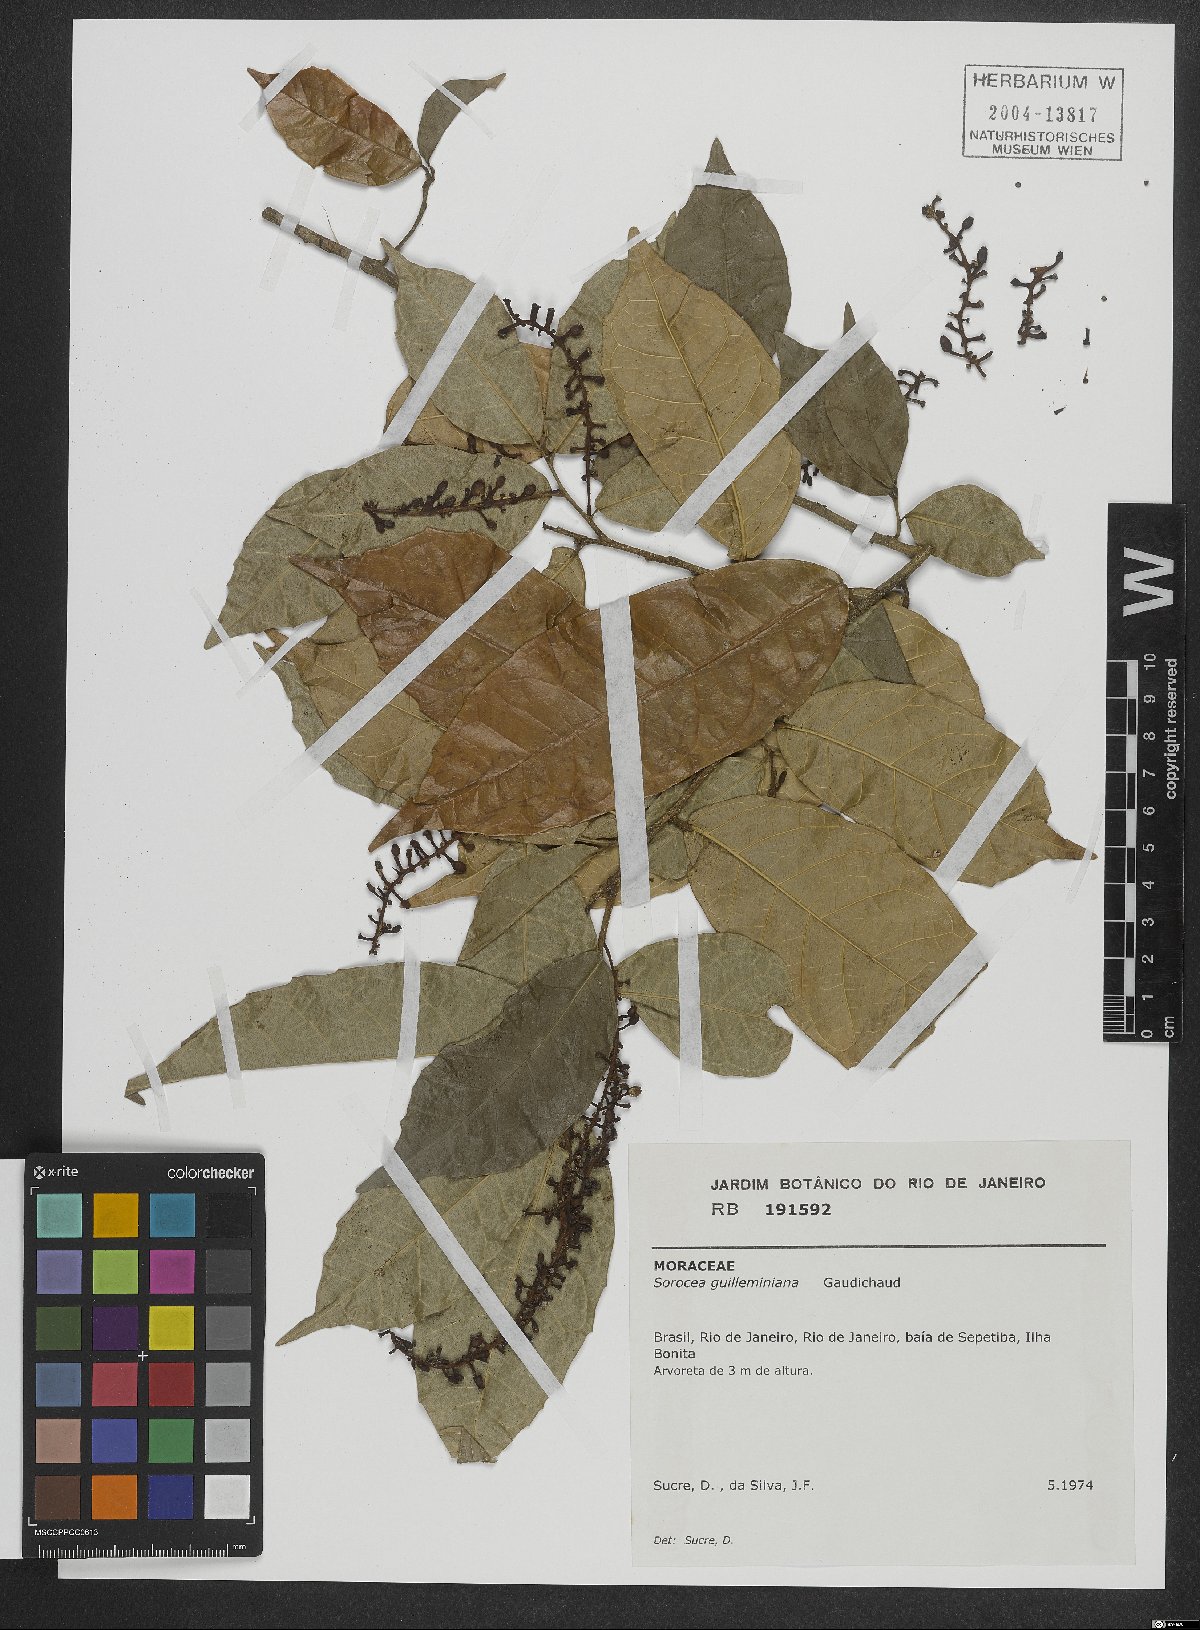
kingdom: Plantae
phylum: Tracheophyta
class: Magnoliopsida
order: Rosales
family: Moraceae
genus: Sorocea
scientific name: Sorocea guilleminiana
